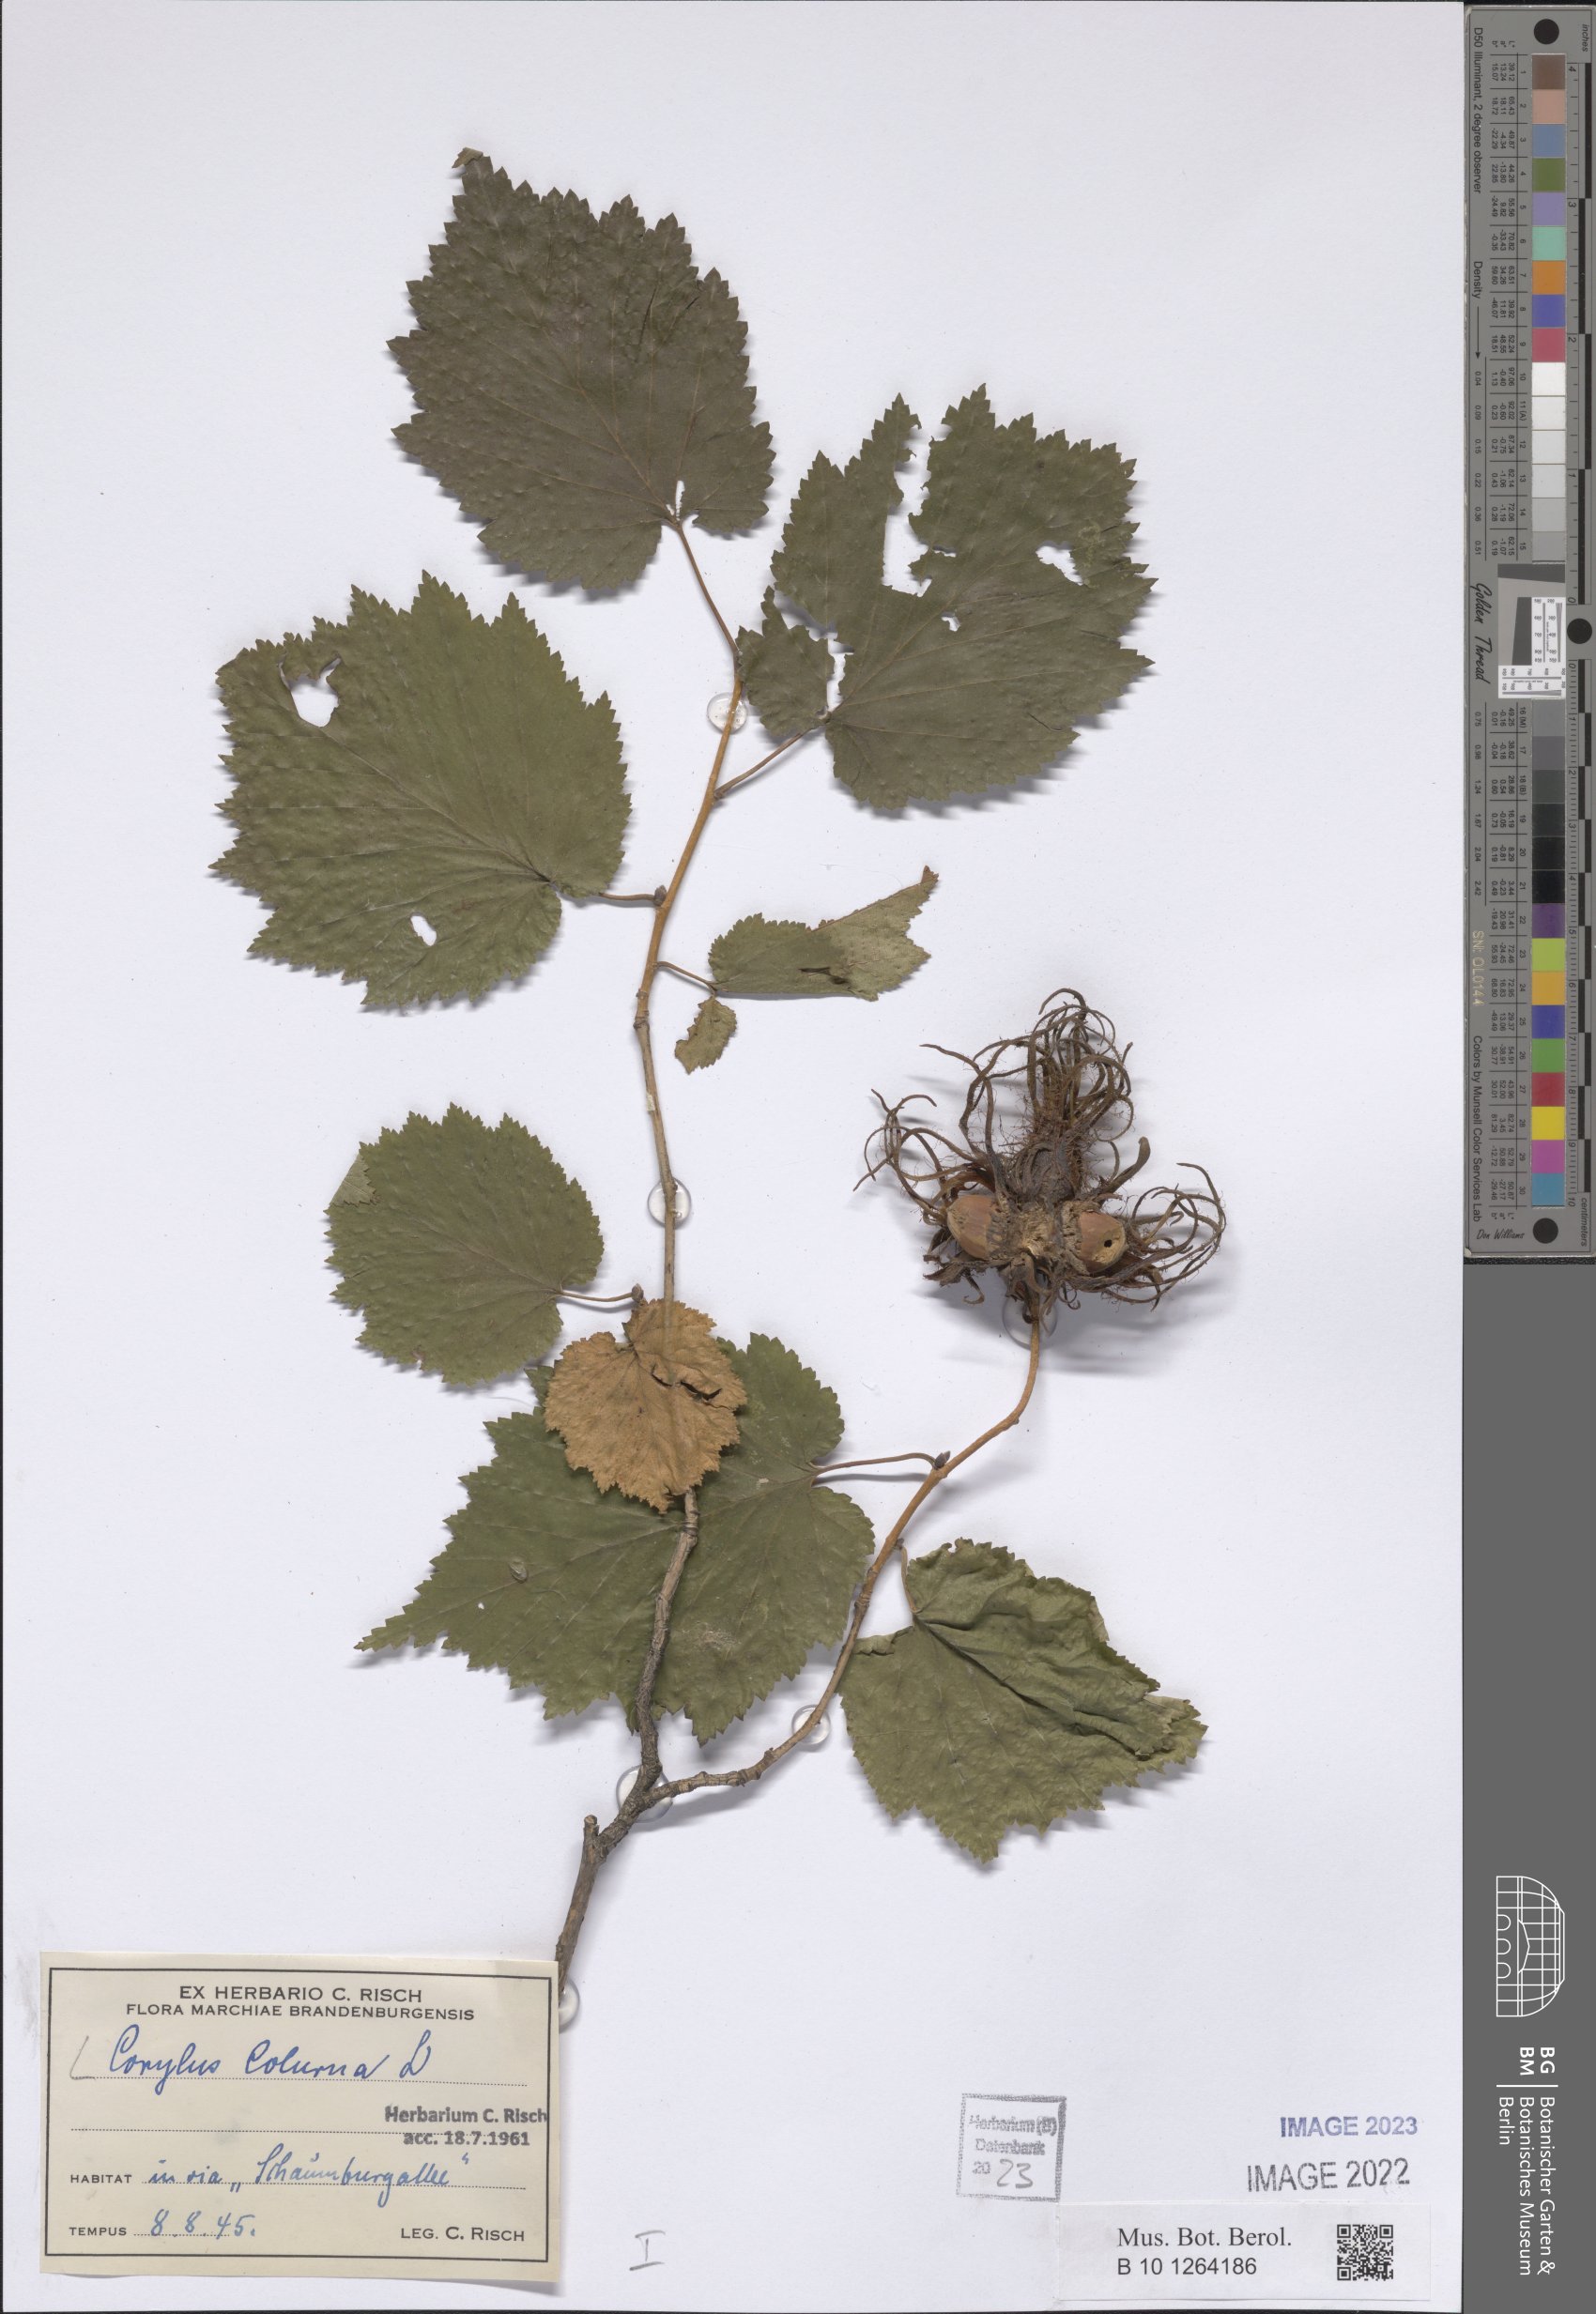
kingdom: Plantae
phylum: Tracheophyta
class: Magnoliopsida
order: Fagales
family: Betulaceae
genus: Corylus
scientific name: Corylus colurna
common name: Turkish hazel
